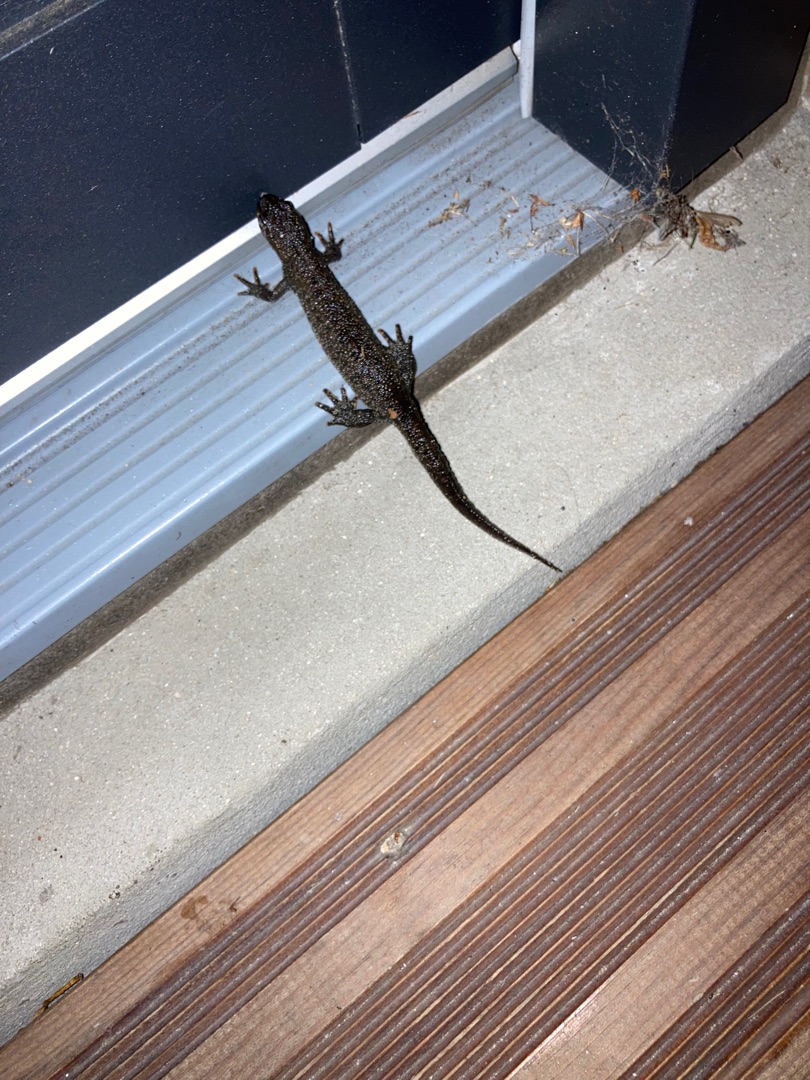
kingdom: Animalia
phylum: Chordata
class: Amphibia
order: Caudata
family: Salamandridae
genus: Triturus
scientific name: Triturus cristatus
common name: Stor vandsalamander
